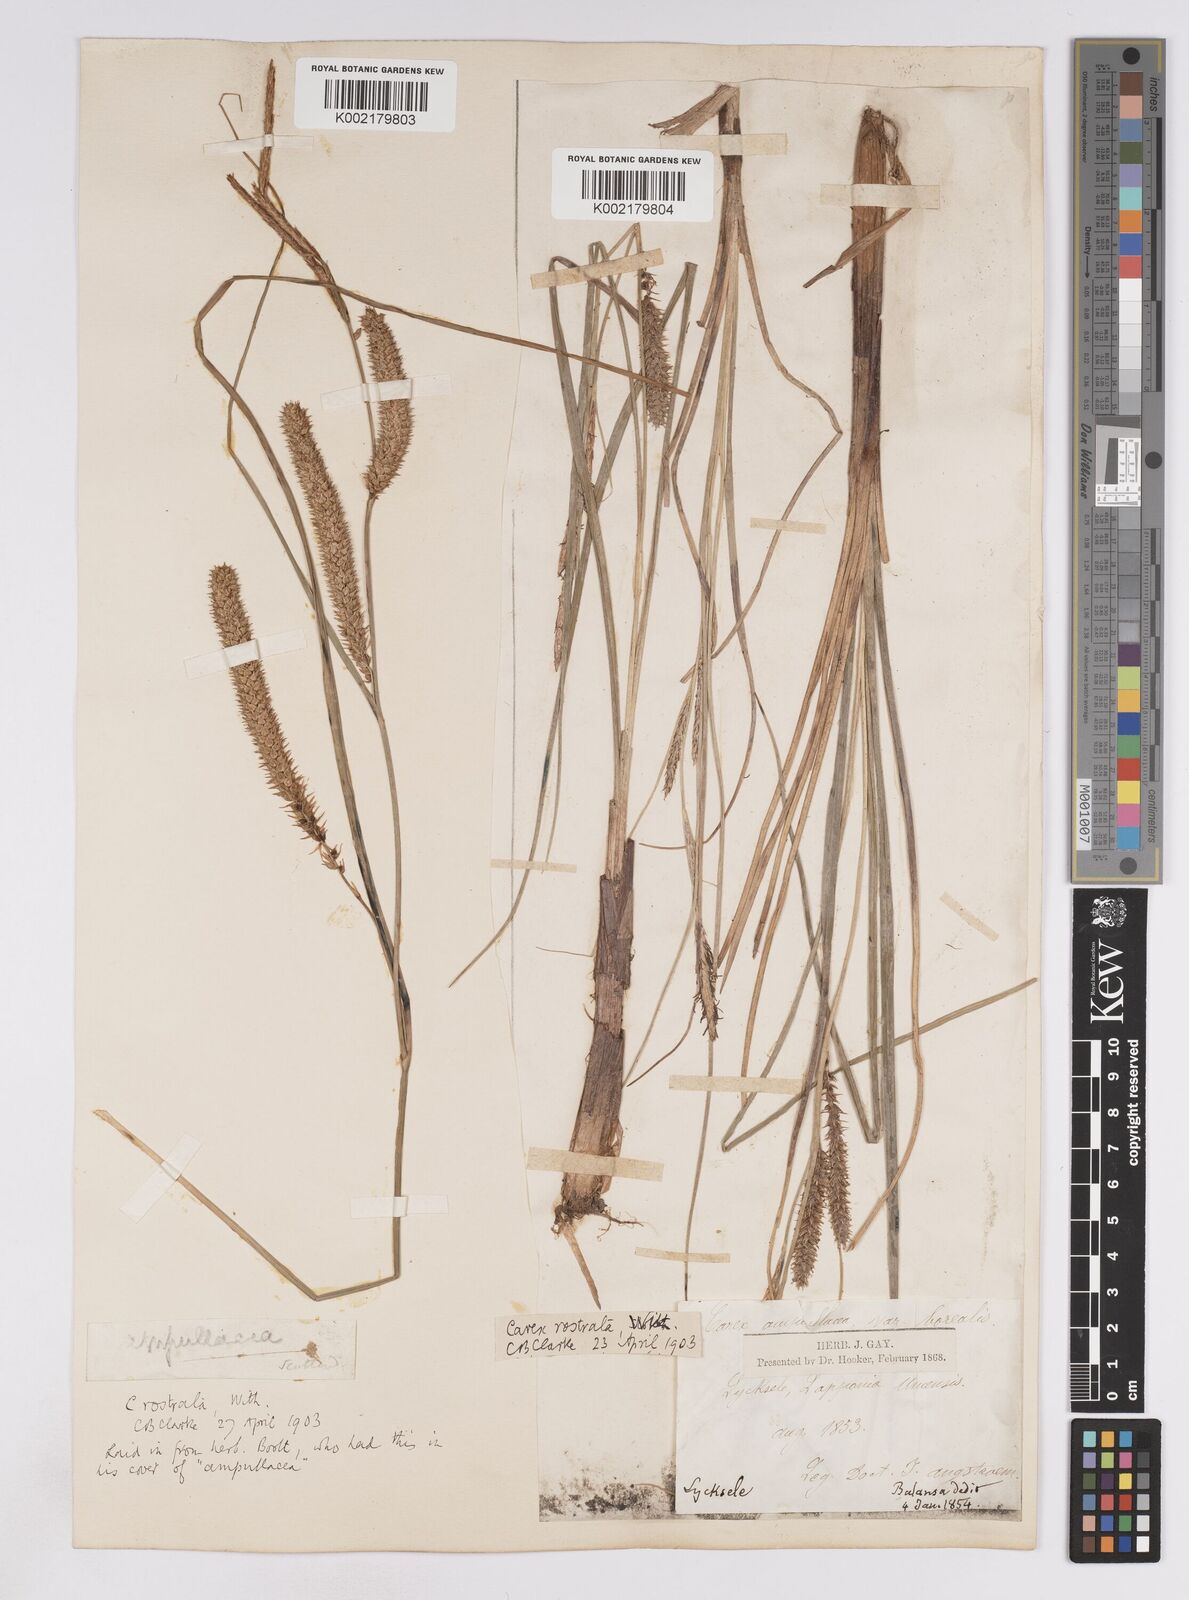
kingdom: Plantae
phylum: Tracheophyta
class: Liliopsida
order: Poales
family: Cyperaceae
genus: Carex
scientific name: Carex rostrata
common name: Bottle sedge
